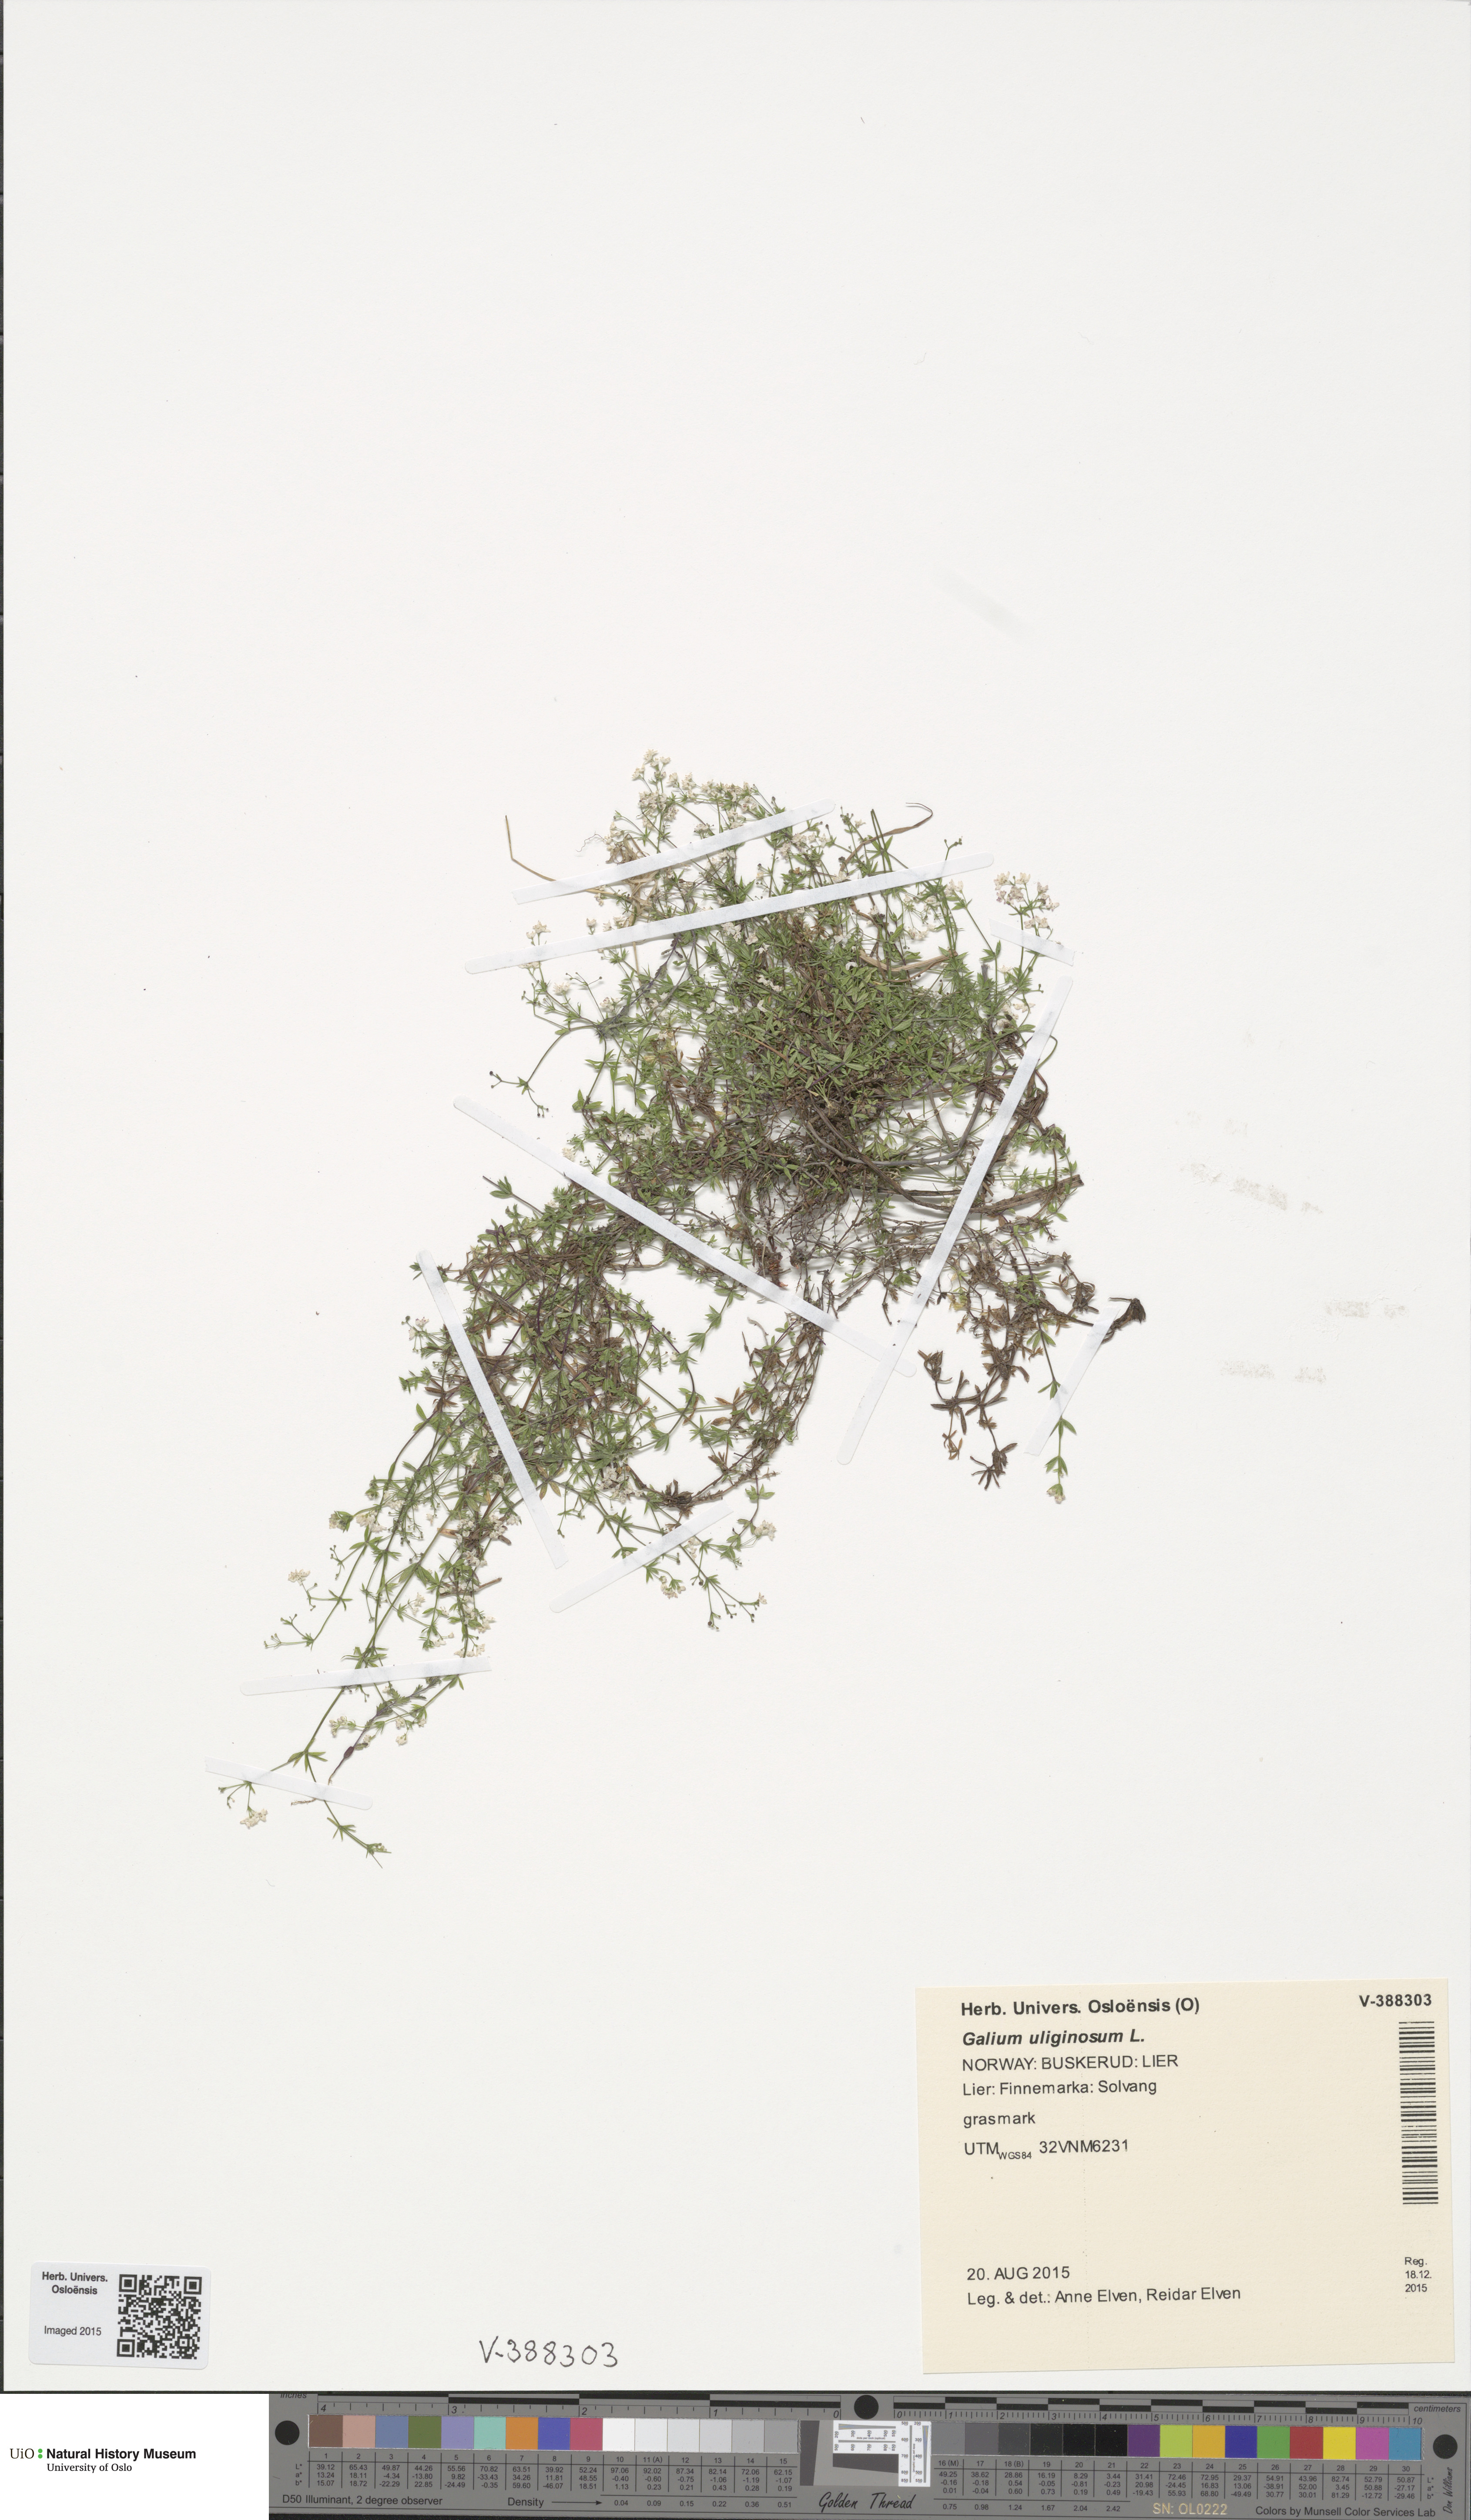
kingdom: Plantae
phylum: Tracheophyta
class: Magnoliopsida
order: Gentianales
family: Rubiaceae
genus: Galium
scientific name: Galium uliginosum
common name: Fen bedstraw
